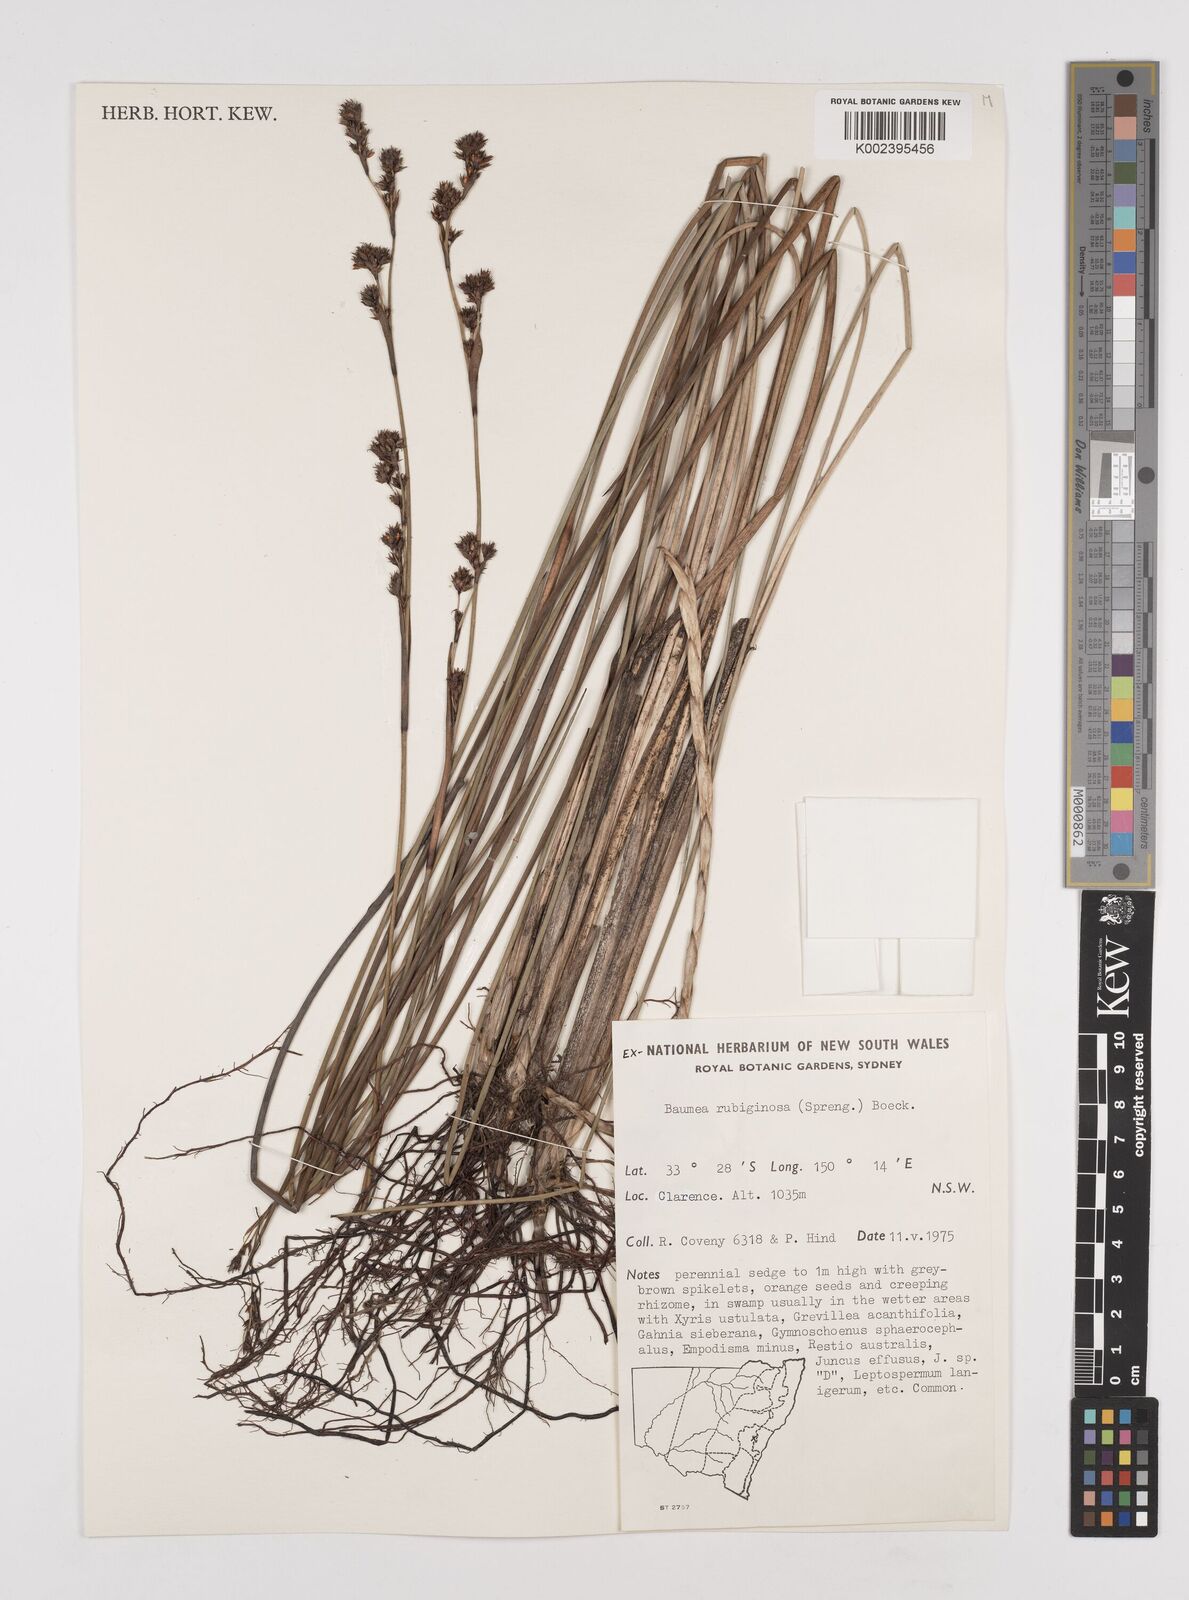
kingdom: Plantae
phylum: Tracheophyta
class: Liliopsida
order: Poales
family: Cyperaceae
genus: Machaerina
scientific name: Machaerina rubiginosa
